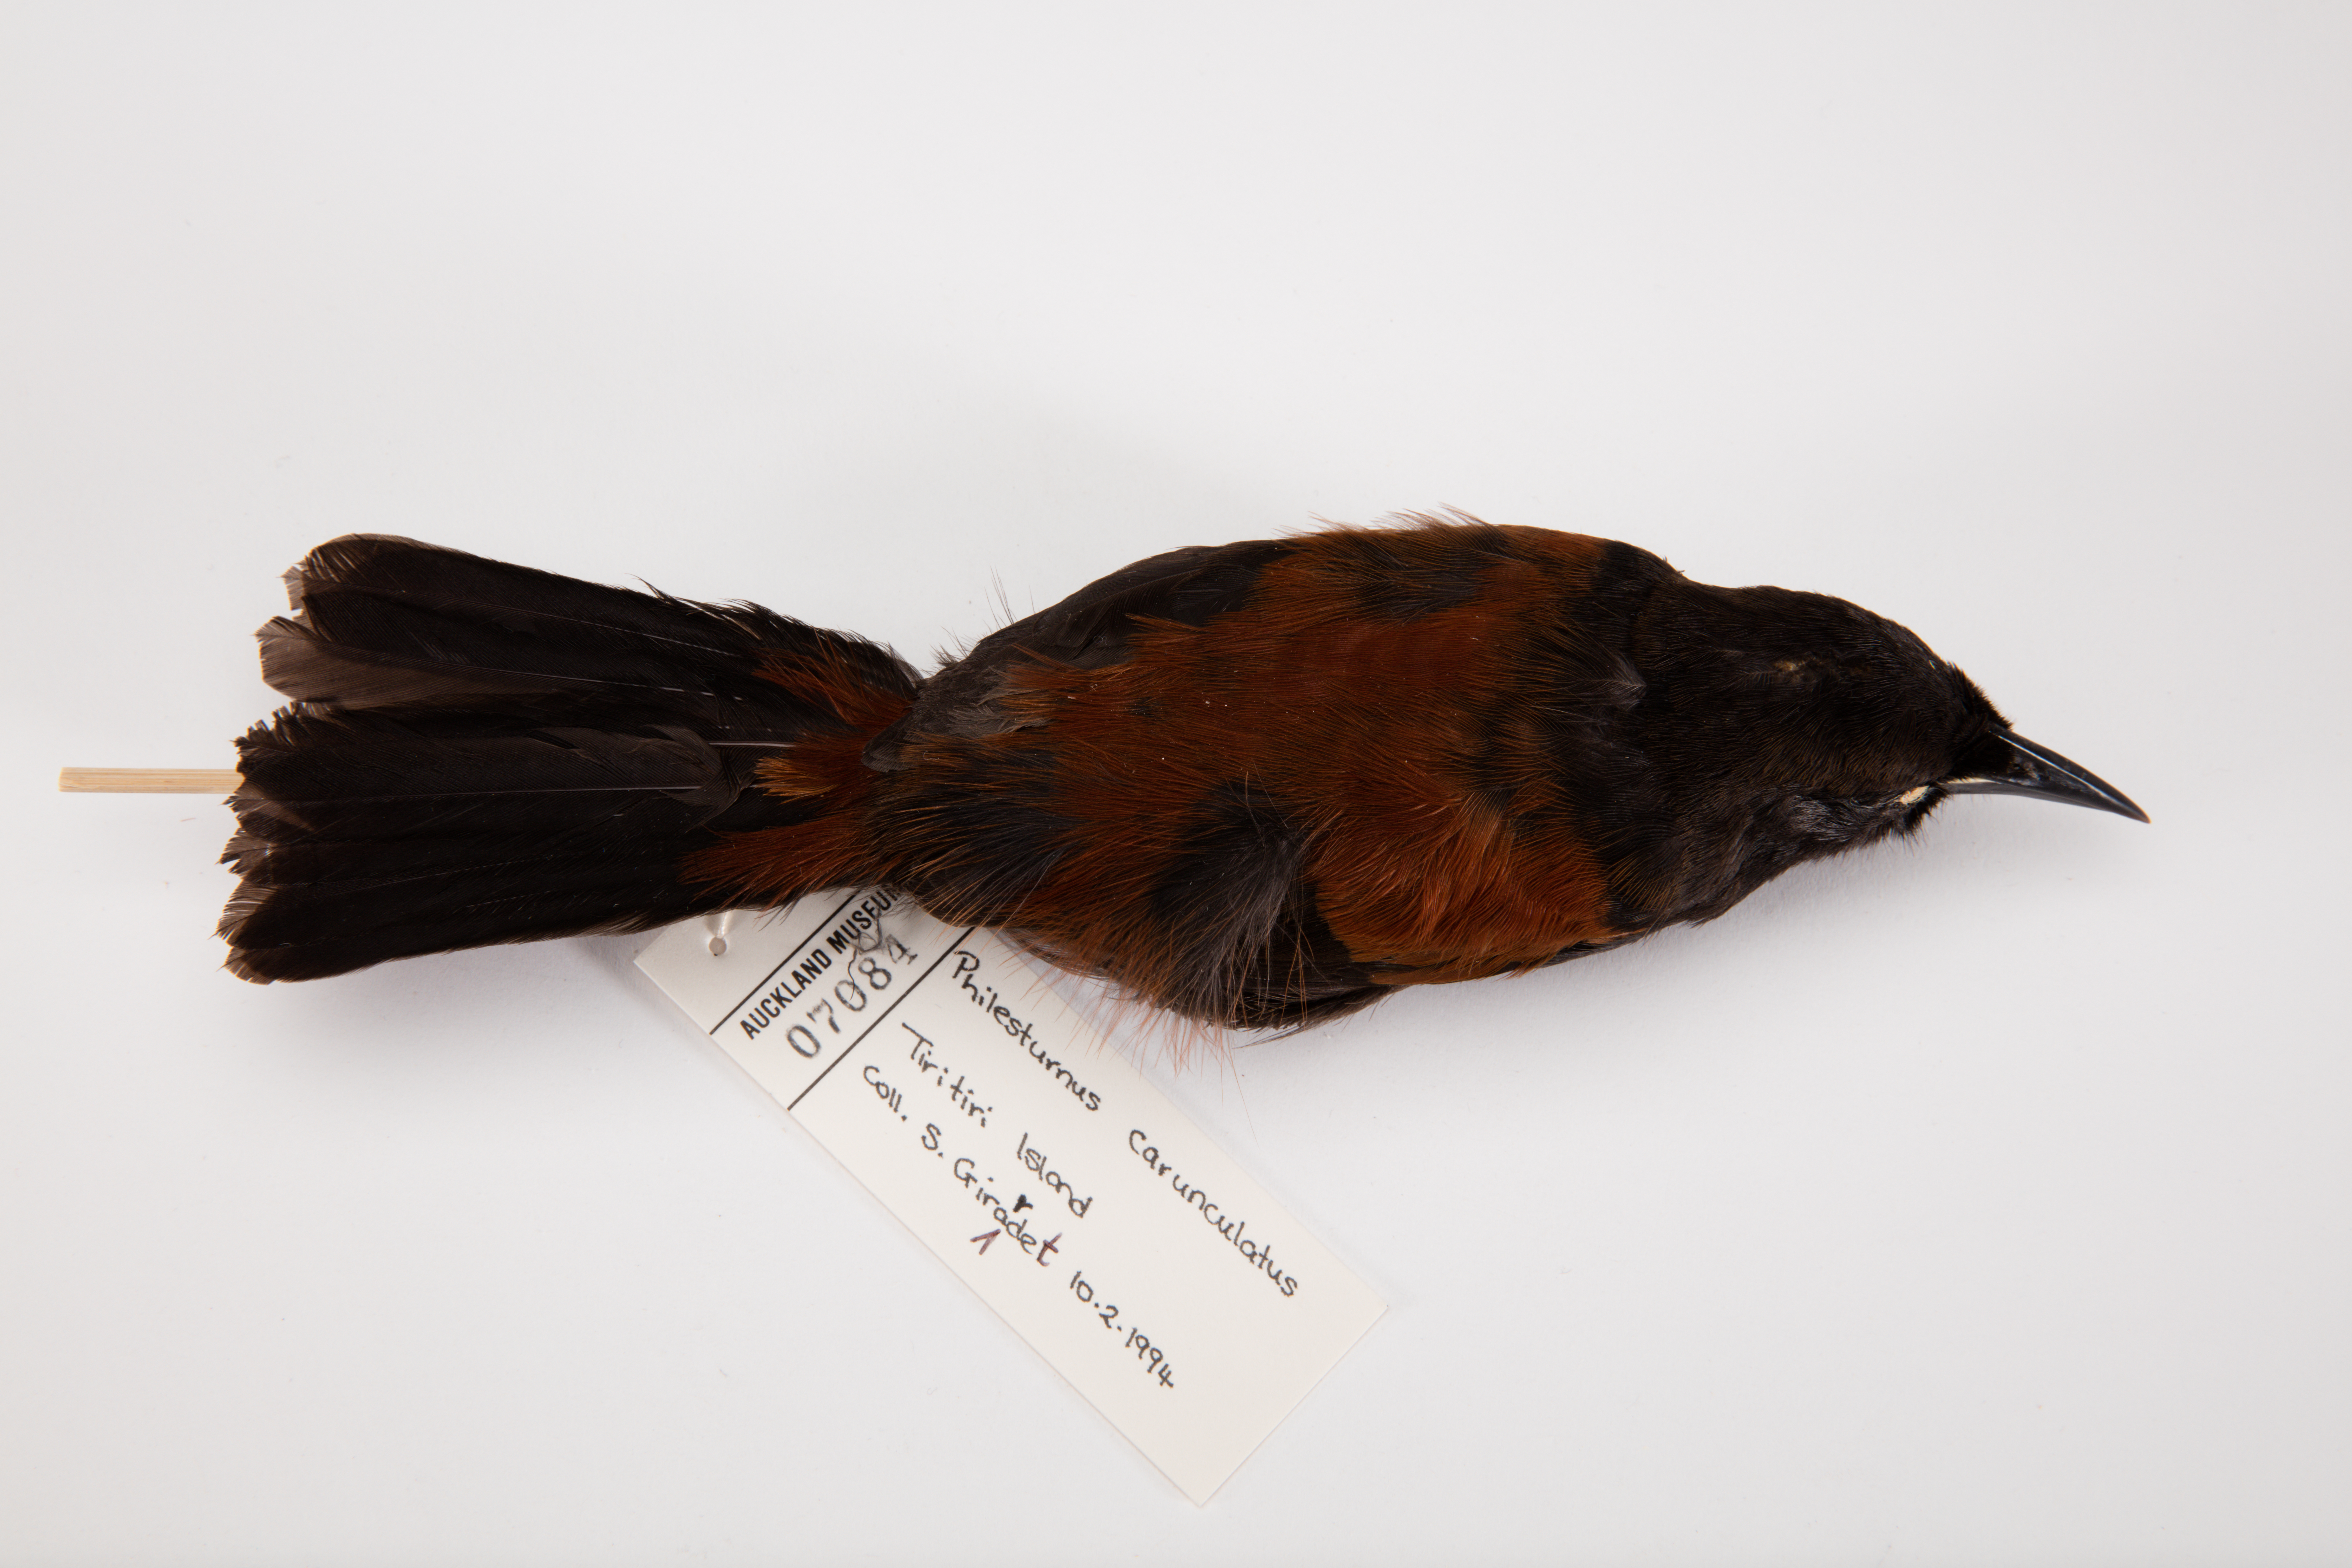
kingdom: Animalia
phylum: Chordata
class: Aves
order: Passeriformes
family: Callaeatidae
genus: Philesturnus
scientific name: Philesturnus carunculatus
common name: South island saddleback
